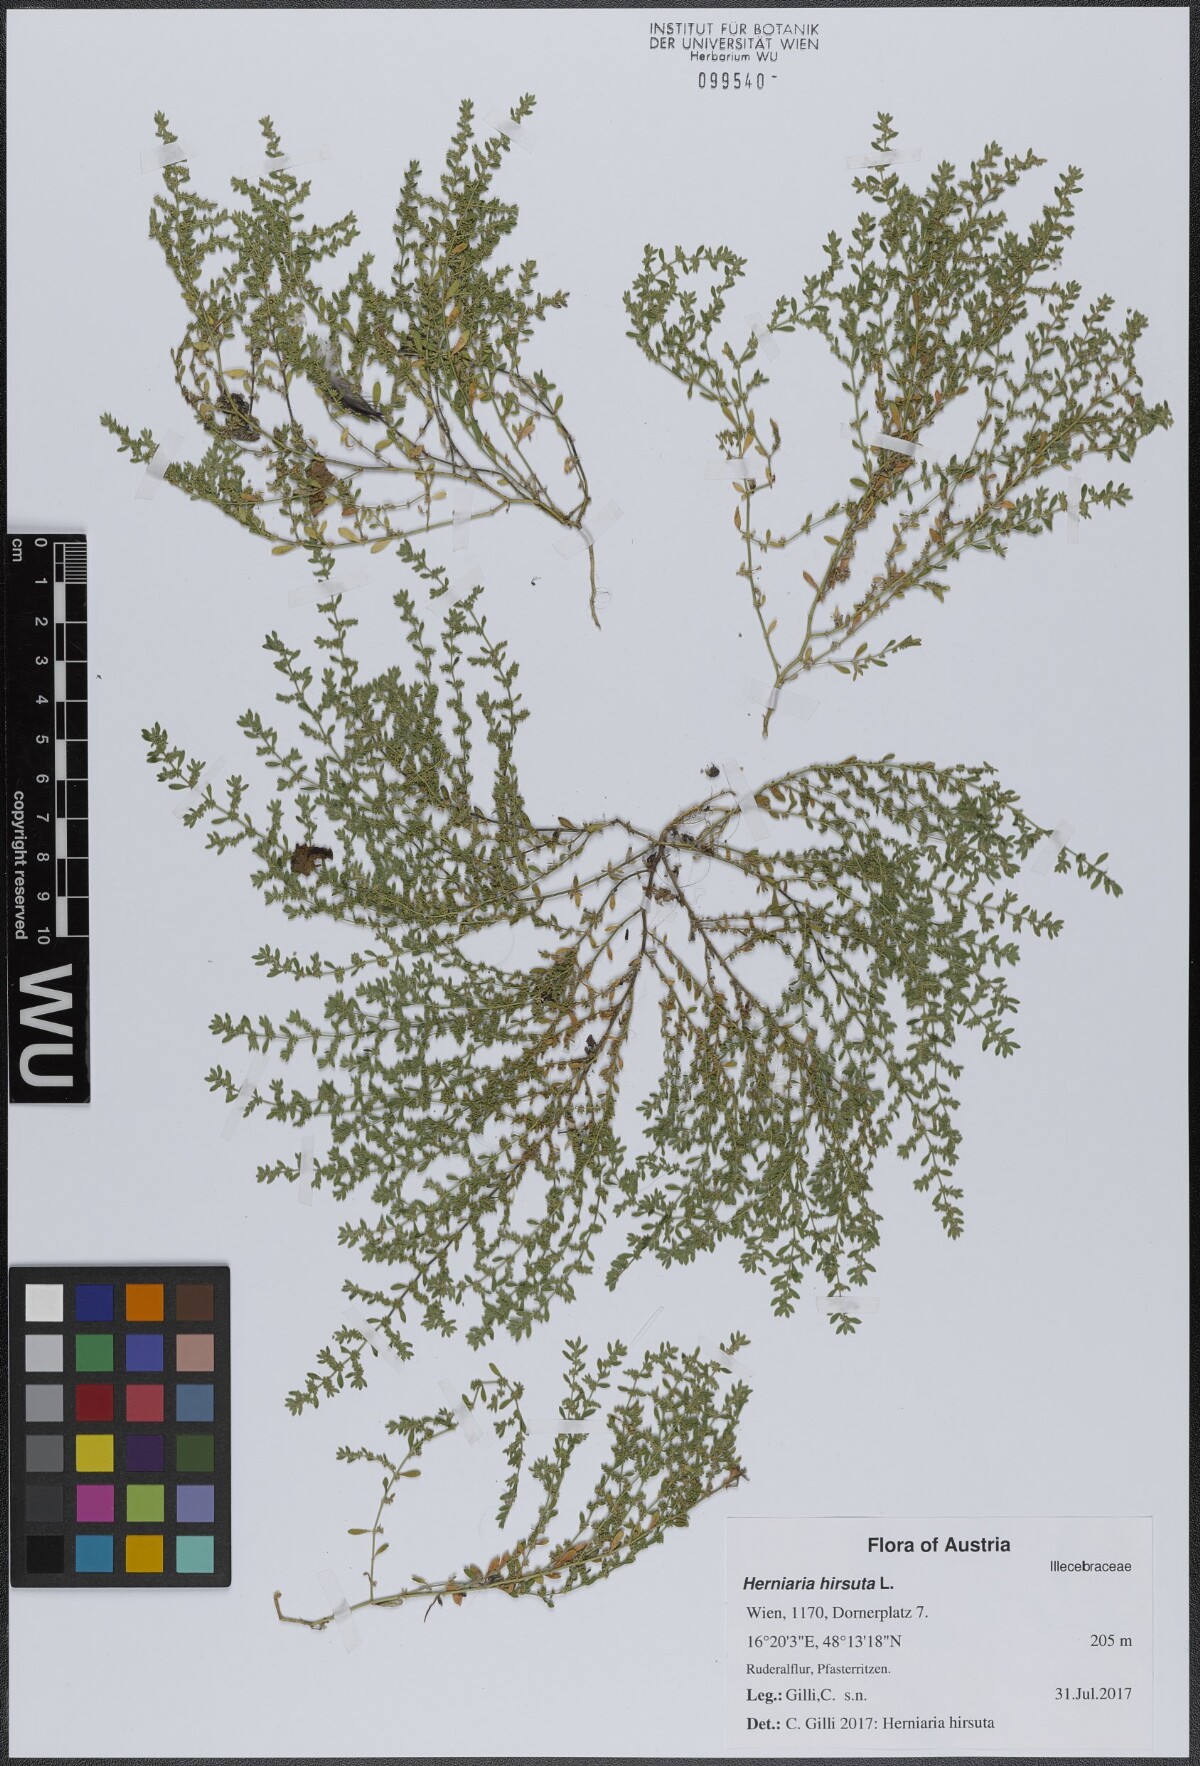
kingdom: Plantae
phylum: Tracheophyta
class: Magnoliopsida
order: Caryophyllales
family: Caryophyllaceae
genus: Herniaria
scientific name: Herniaria hirsuta
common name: Hairy rupturewort
